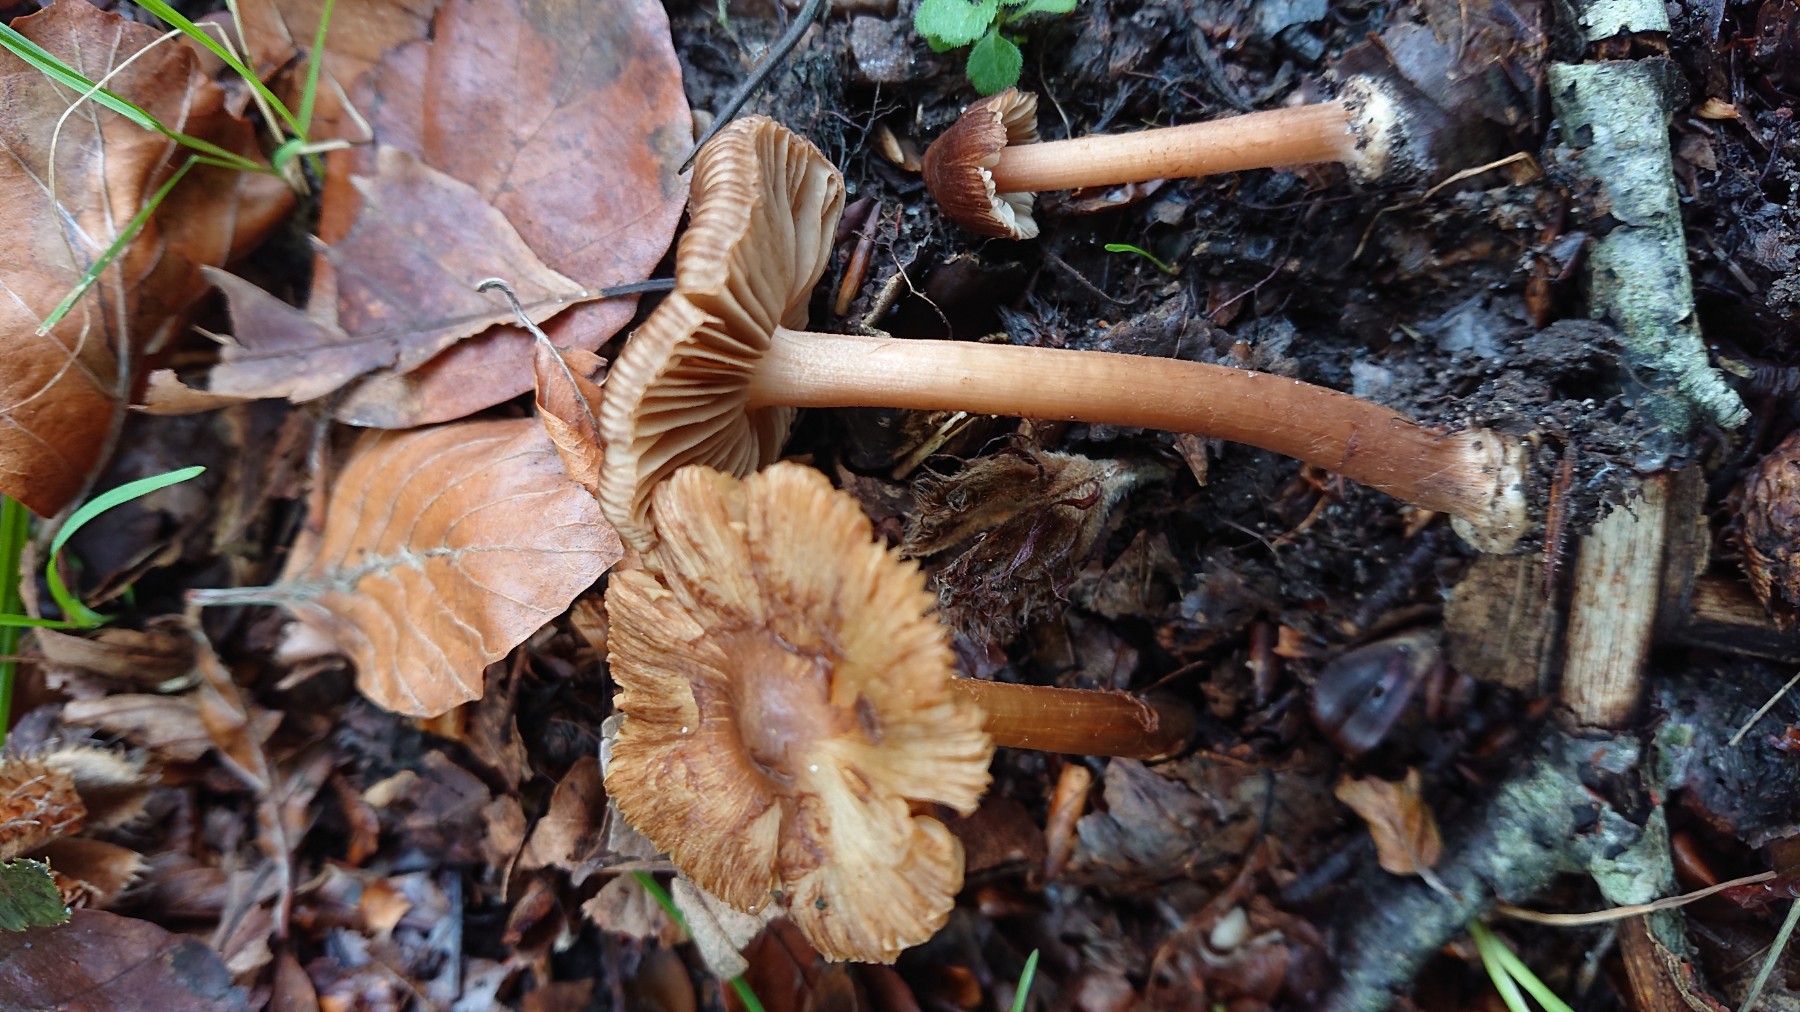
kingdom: Fungi
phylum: Basidiomycota
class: Agaricomycetes
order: Agaricales
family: Inocybaceae
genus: Inocybe
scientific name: Inocybe asterospora
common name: stjernesporet trævlhat
